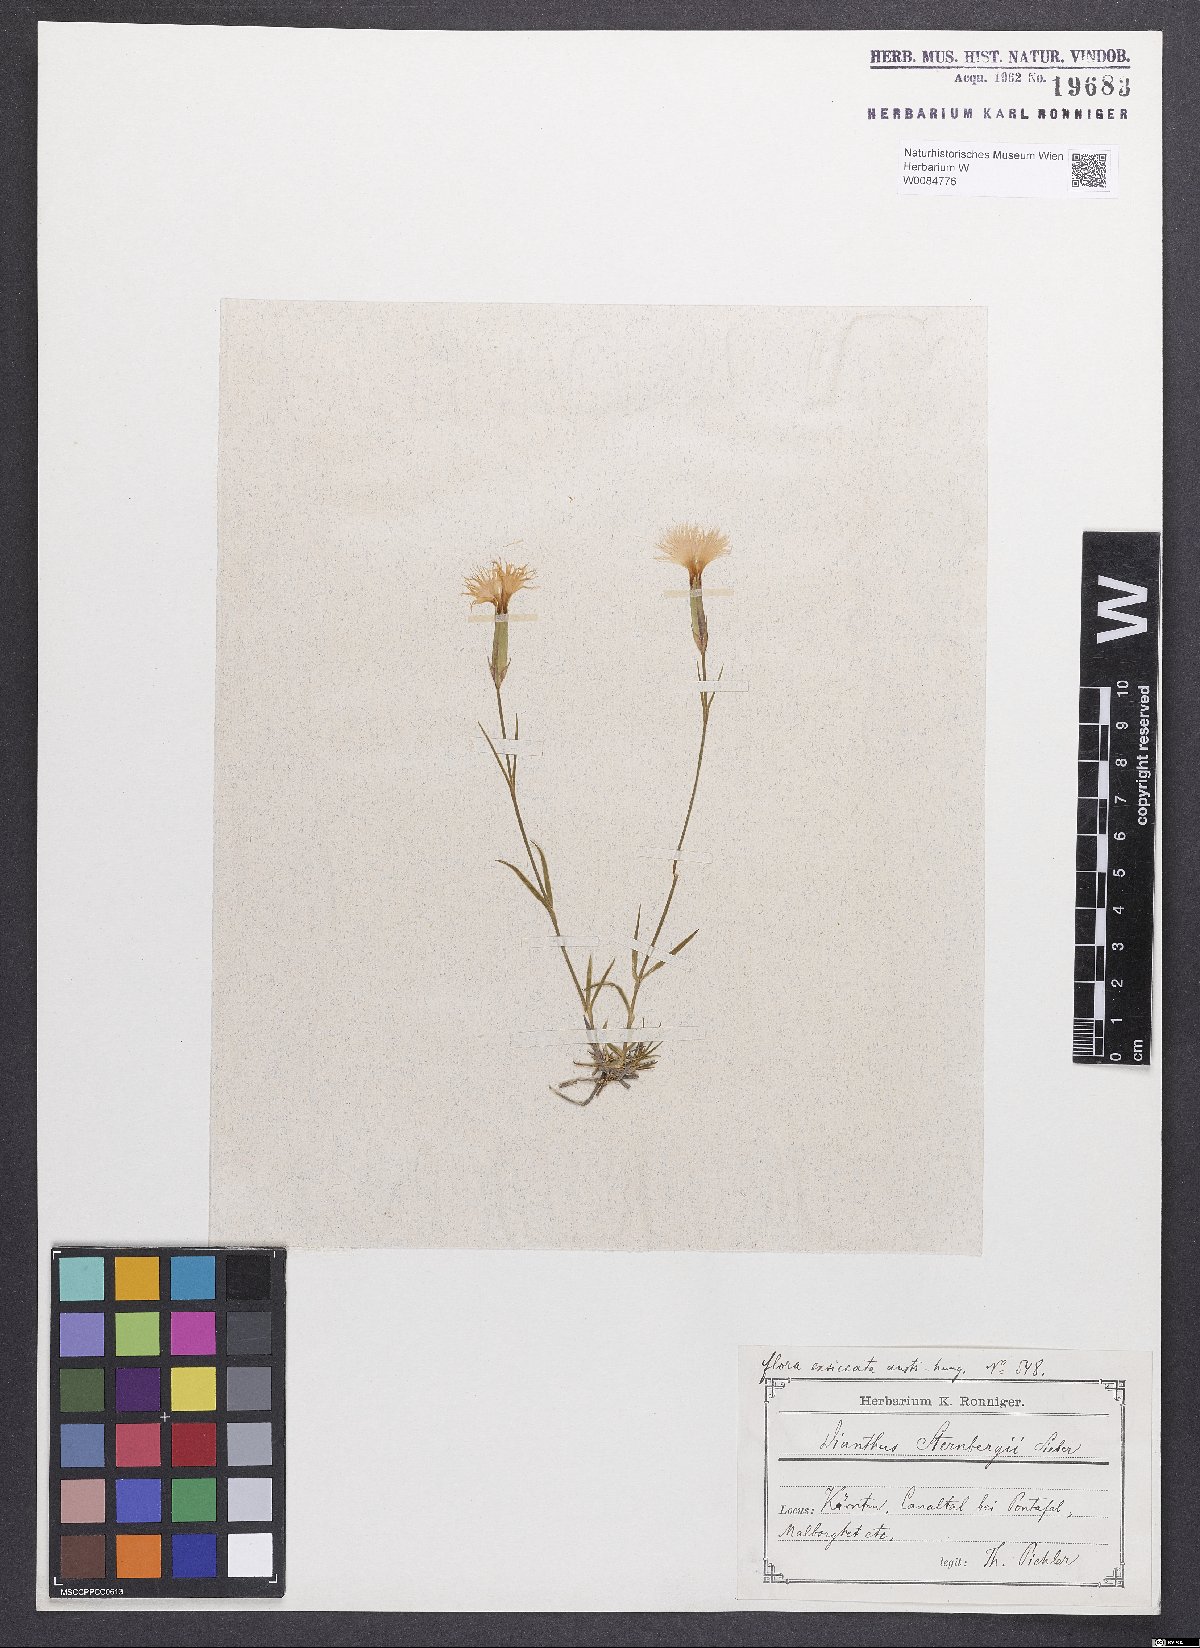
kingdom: Plantae
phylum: Tracheophyta
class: Magnoliopsida
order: Caryophyllales
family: Caryophyllaceae
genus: Dianthus
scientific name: Dianthus monspessulanus
